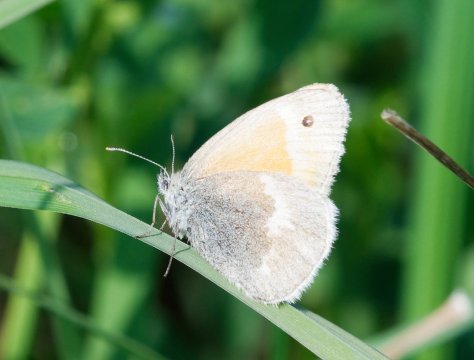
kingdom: Animalia
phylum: Arthropoda
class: Insecta
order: Lepidoptera
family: Nymphalidae
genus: Coenonympha
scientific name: Coenonympha tullia
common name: Large Heath
